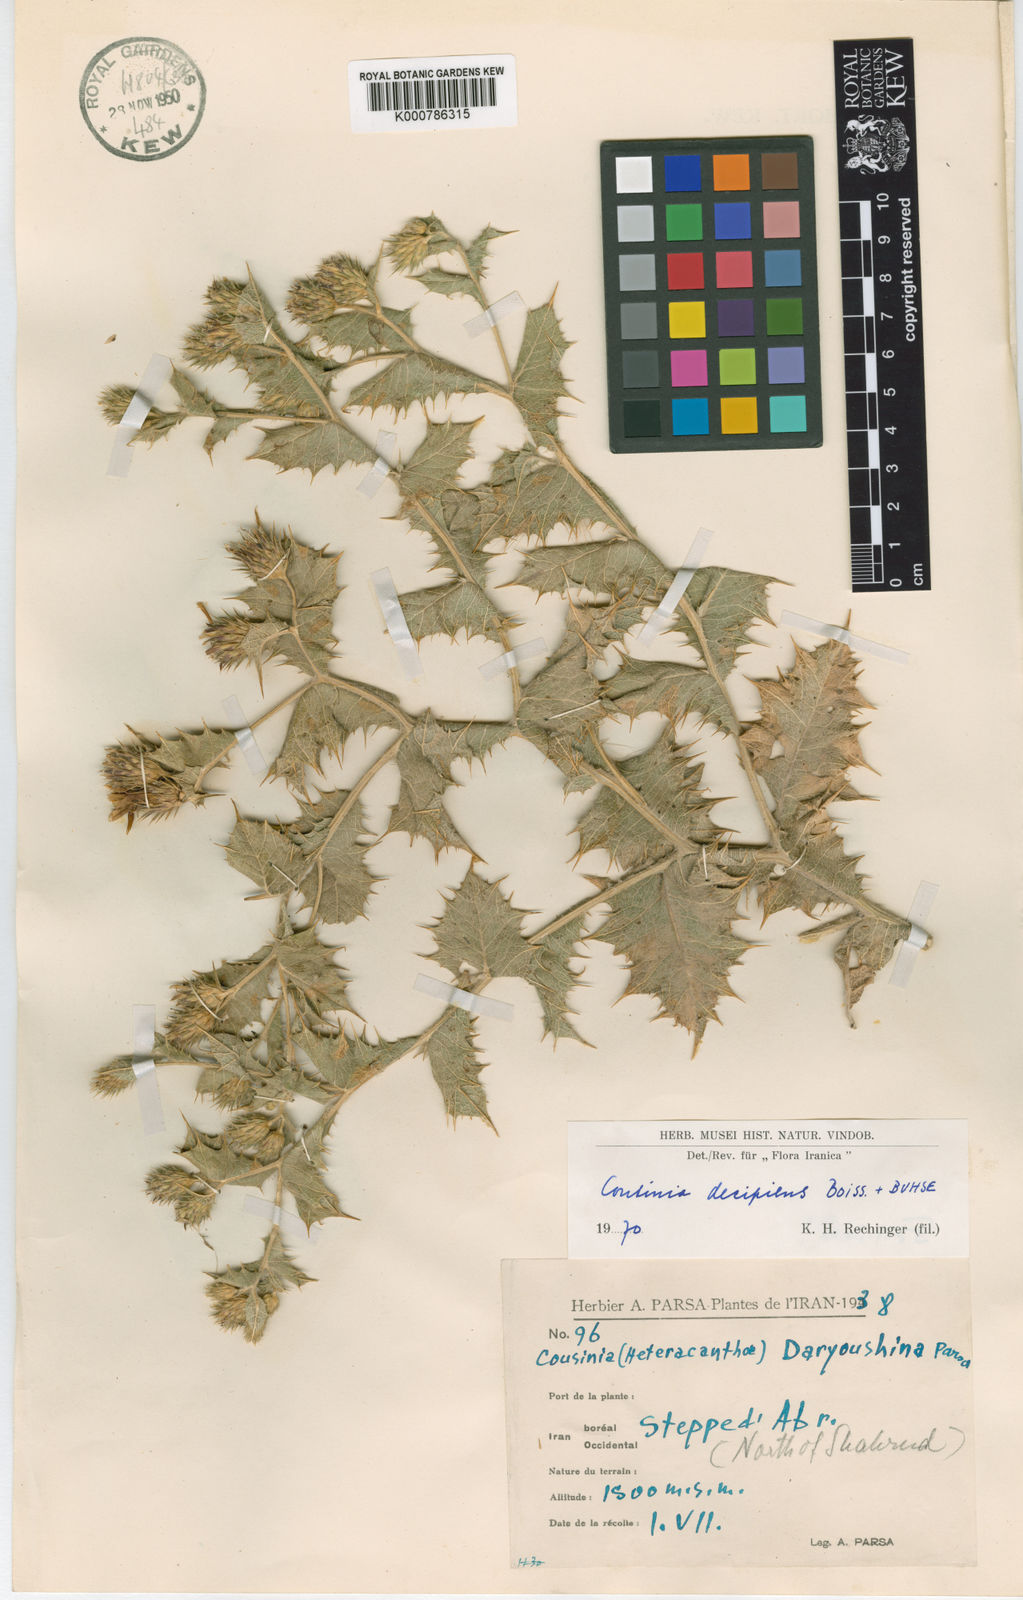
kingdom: Plantae
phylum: Tracheophyta
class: Magnoliopsida
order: Asterales
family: Asteraceae
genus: Cousinia
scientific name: Cousinia decipiens
